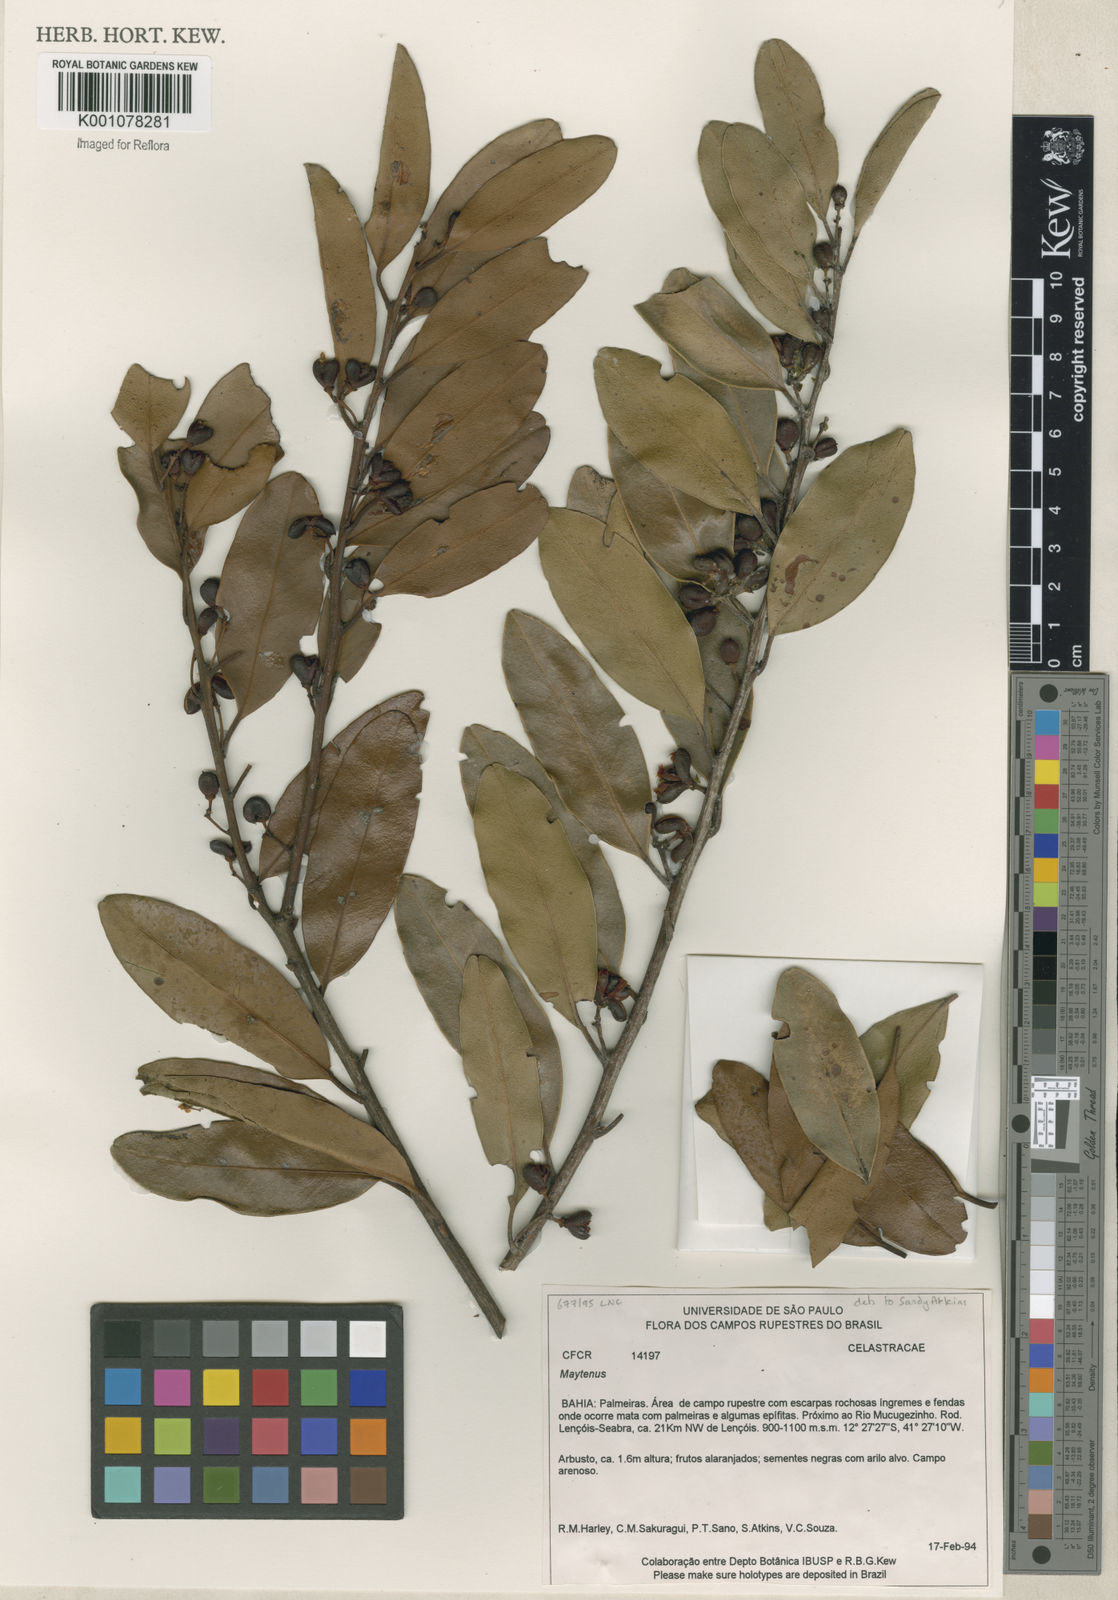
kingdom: Plantae
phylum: Tracheophyta
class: Magnoliopsida
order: Celastrales
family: Celastraceae
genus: Maytenus
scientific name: Maytenus
